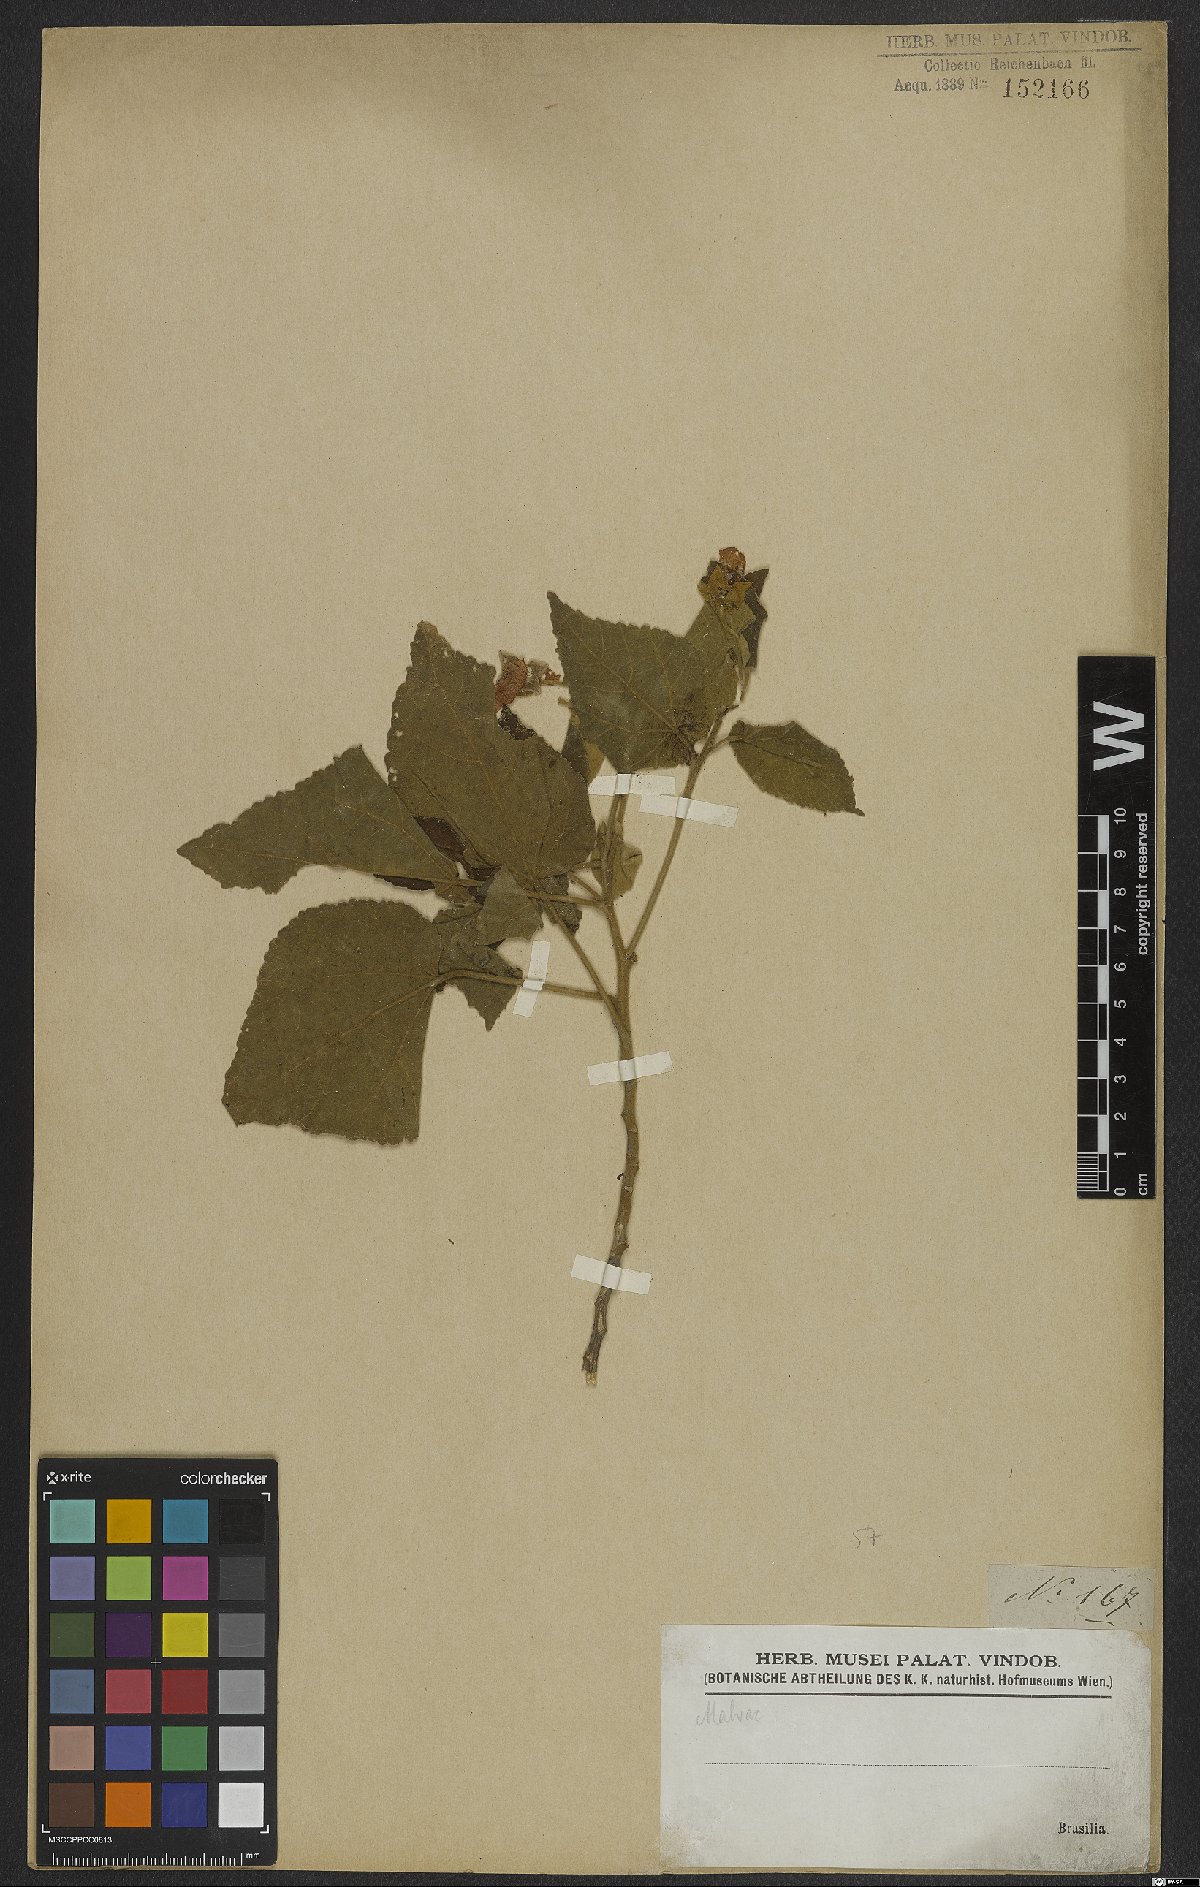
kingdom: Plantae
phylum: Tracheophyta
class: Magnoliopsida
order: Malvales
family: Malvaceae
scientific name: Malvaceae
